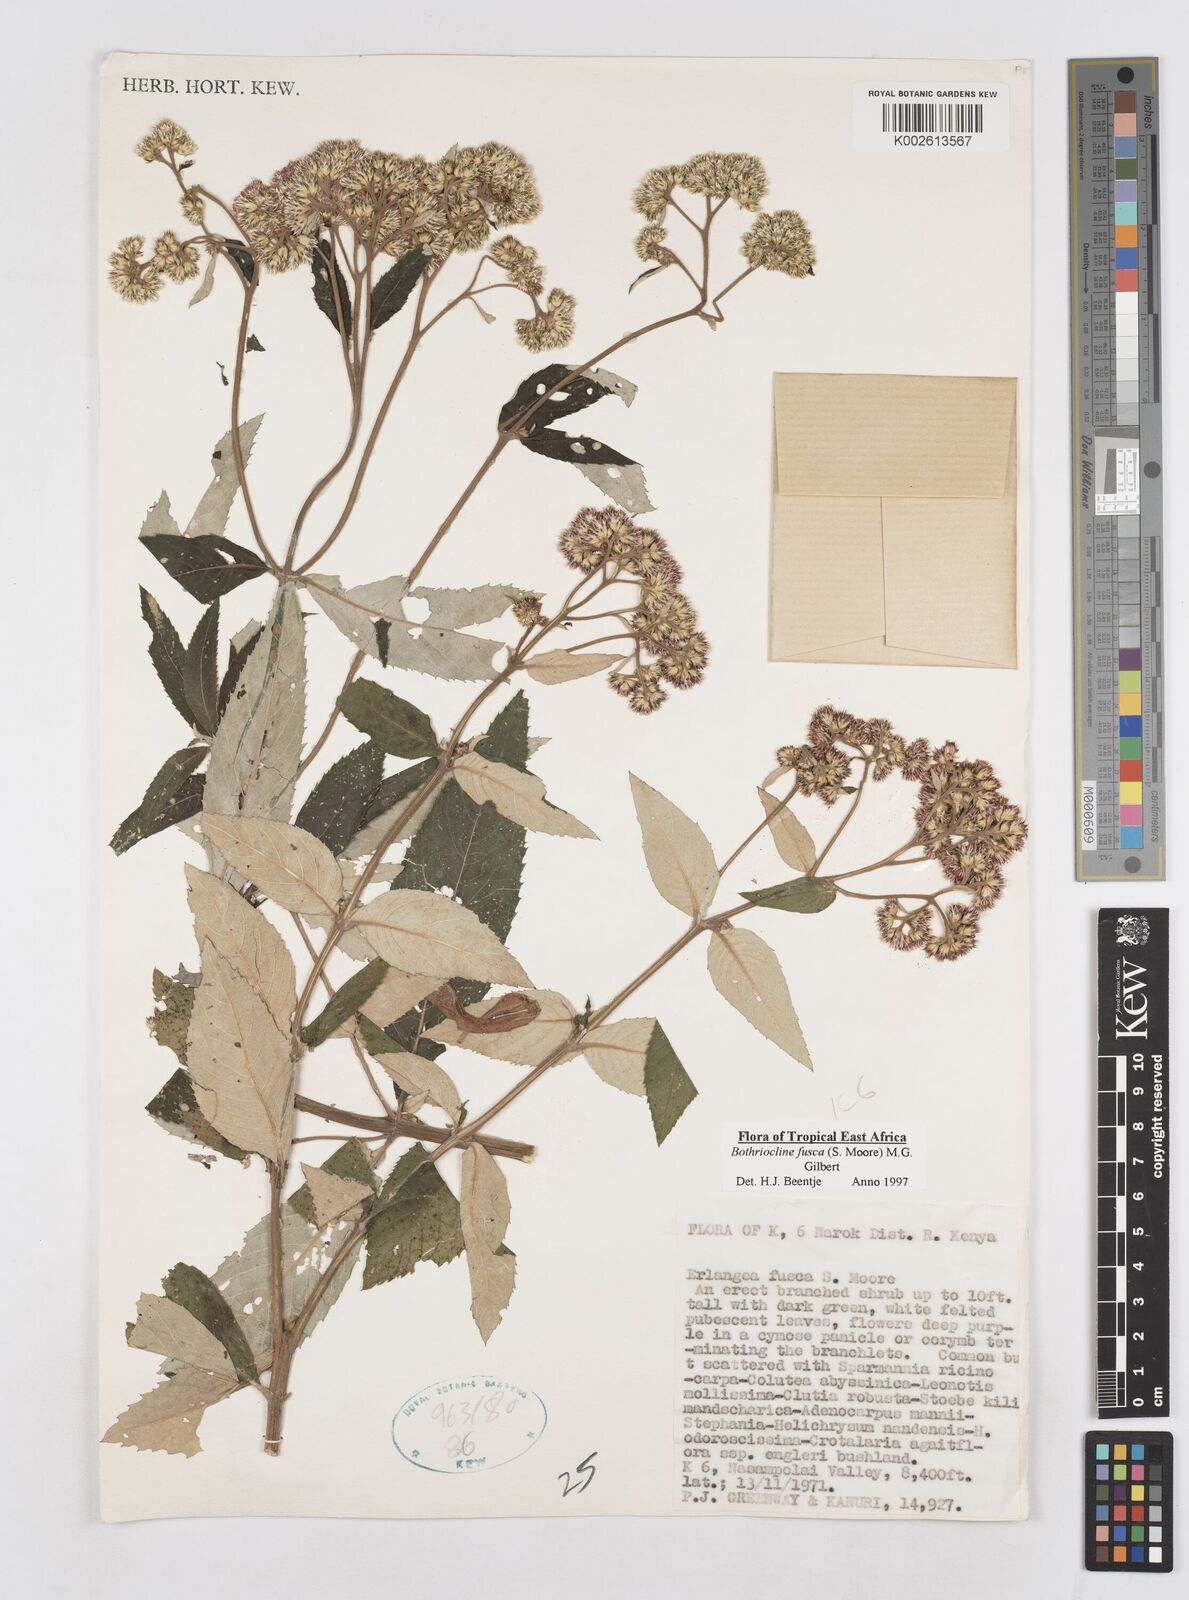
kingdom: Plantae
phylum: Tracheophyta
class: Magnoliopsida
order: Asterales
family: Asteraceae
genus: Bothriocline
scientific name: Bothriocline fusca
